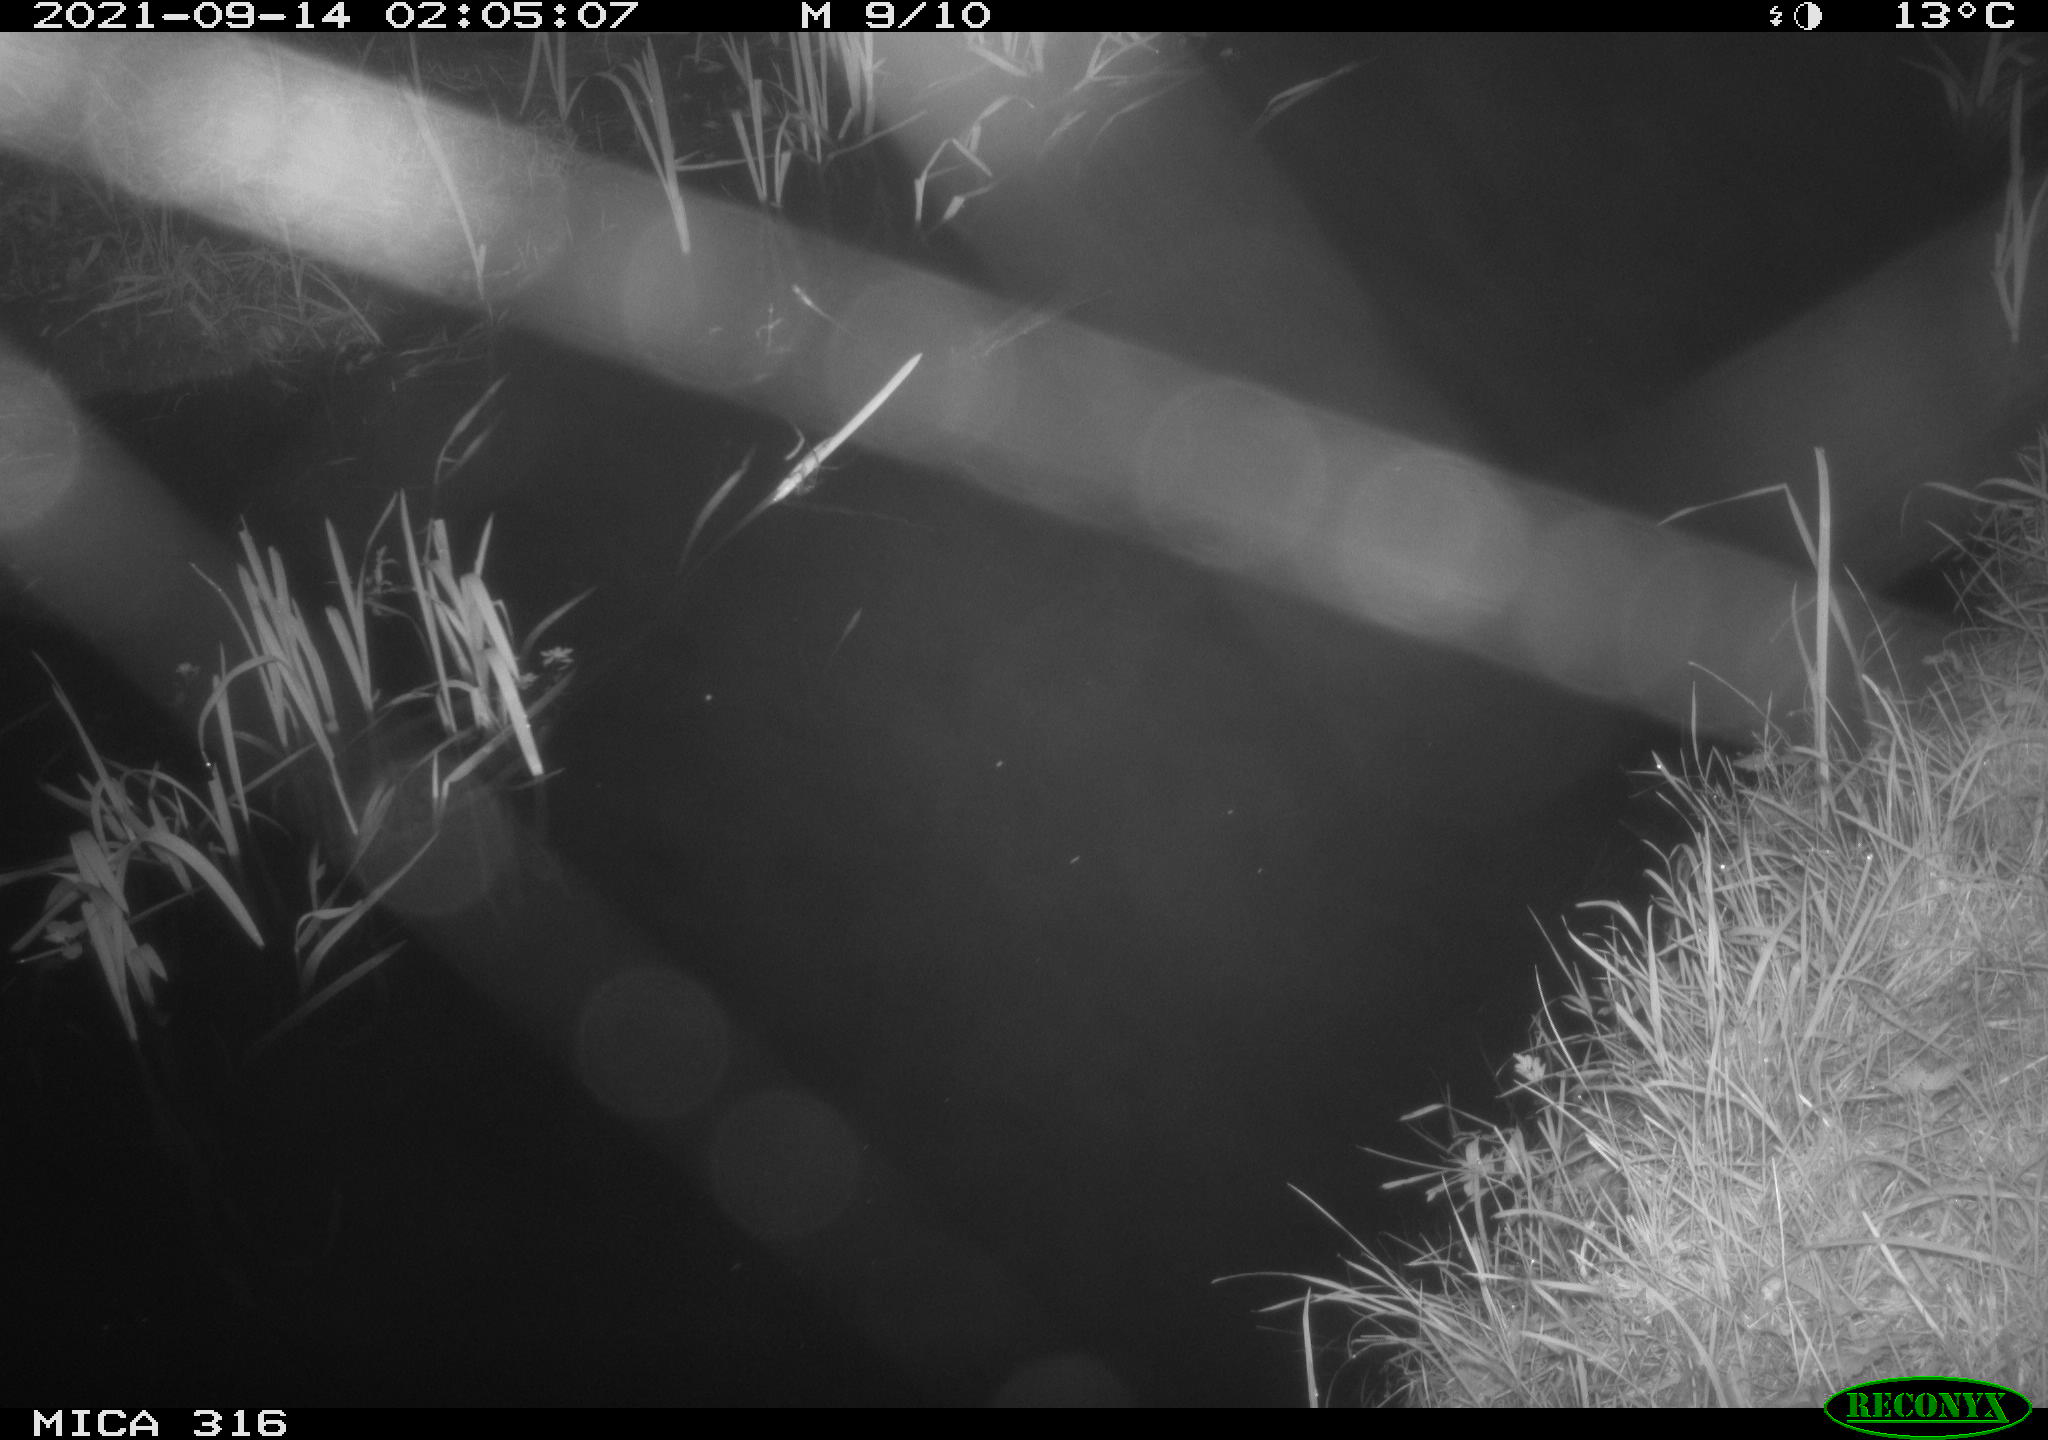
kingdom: Animalia
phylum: Chordata
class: Mammalia
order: Rodentia
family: Muridae
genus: Rattus
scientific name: Rattus norvegicus
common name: Brown rat
